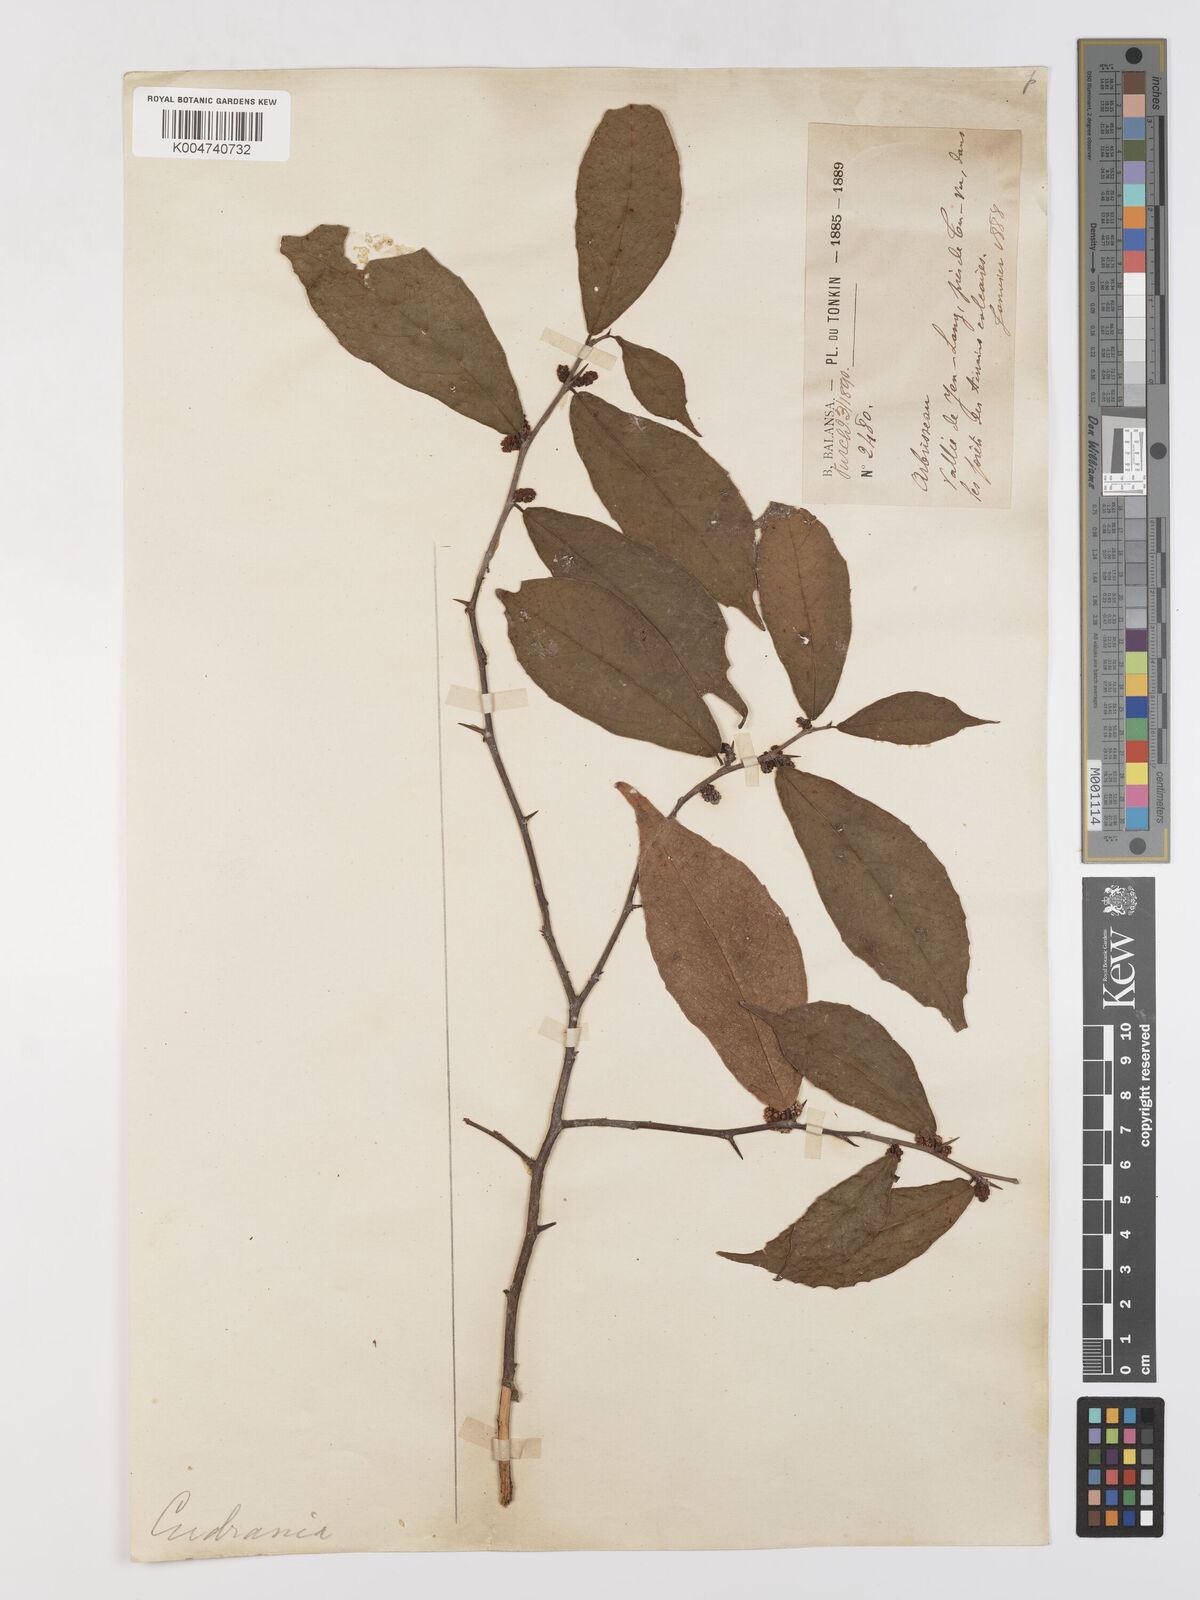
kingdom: Plantae
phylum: Tracheophyta
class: Magnoliopsida
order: Rosales
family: Moraceae
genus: Streblus
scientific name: Streblus asper
